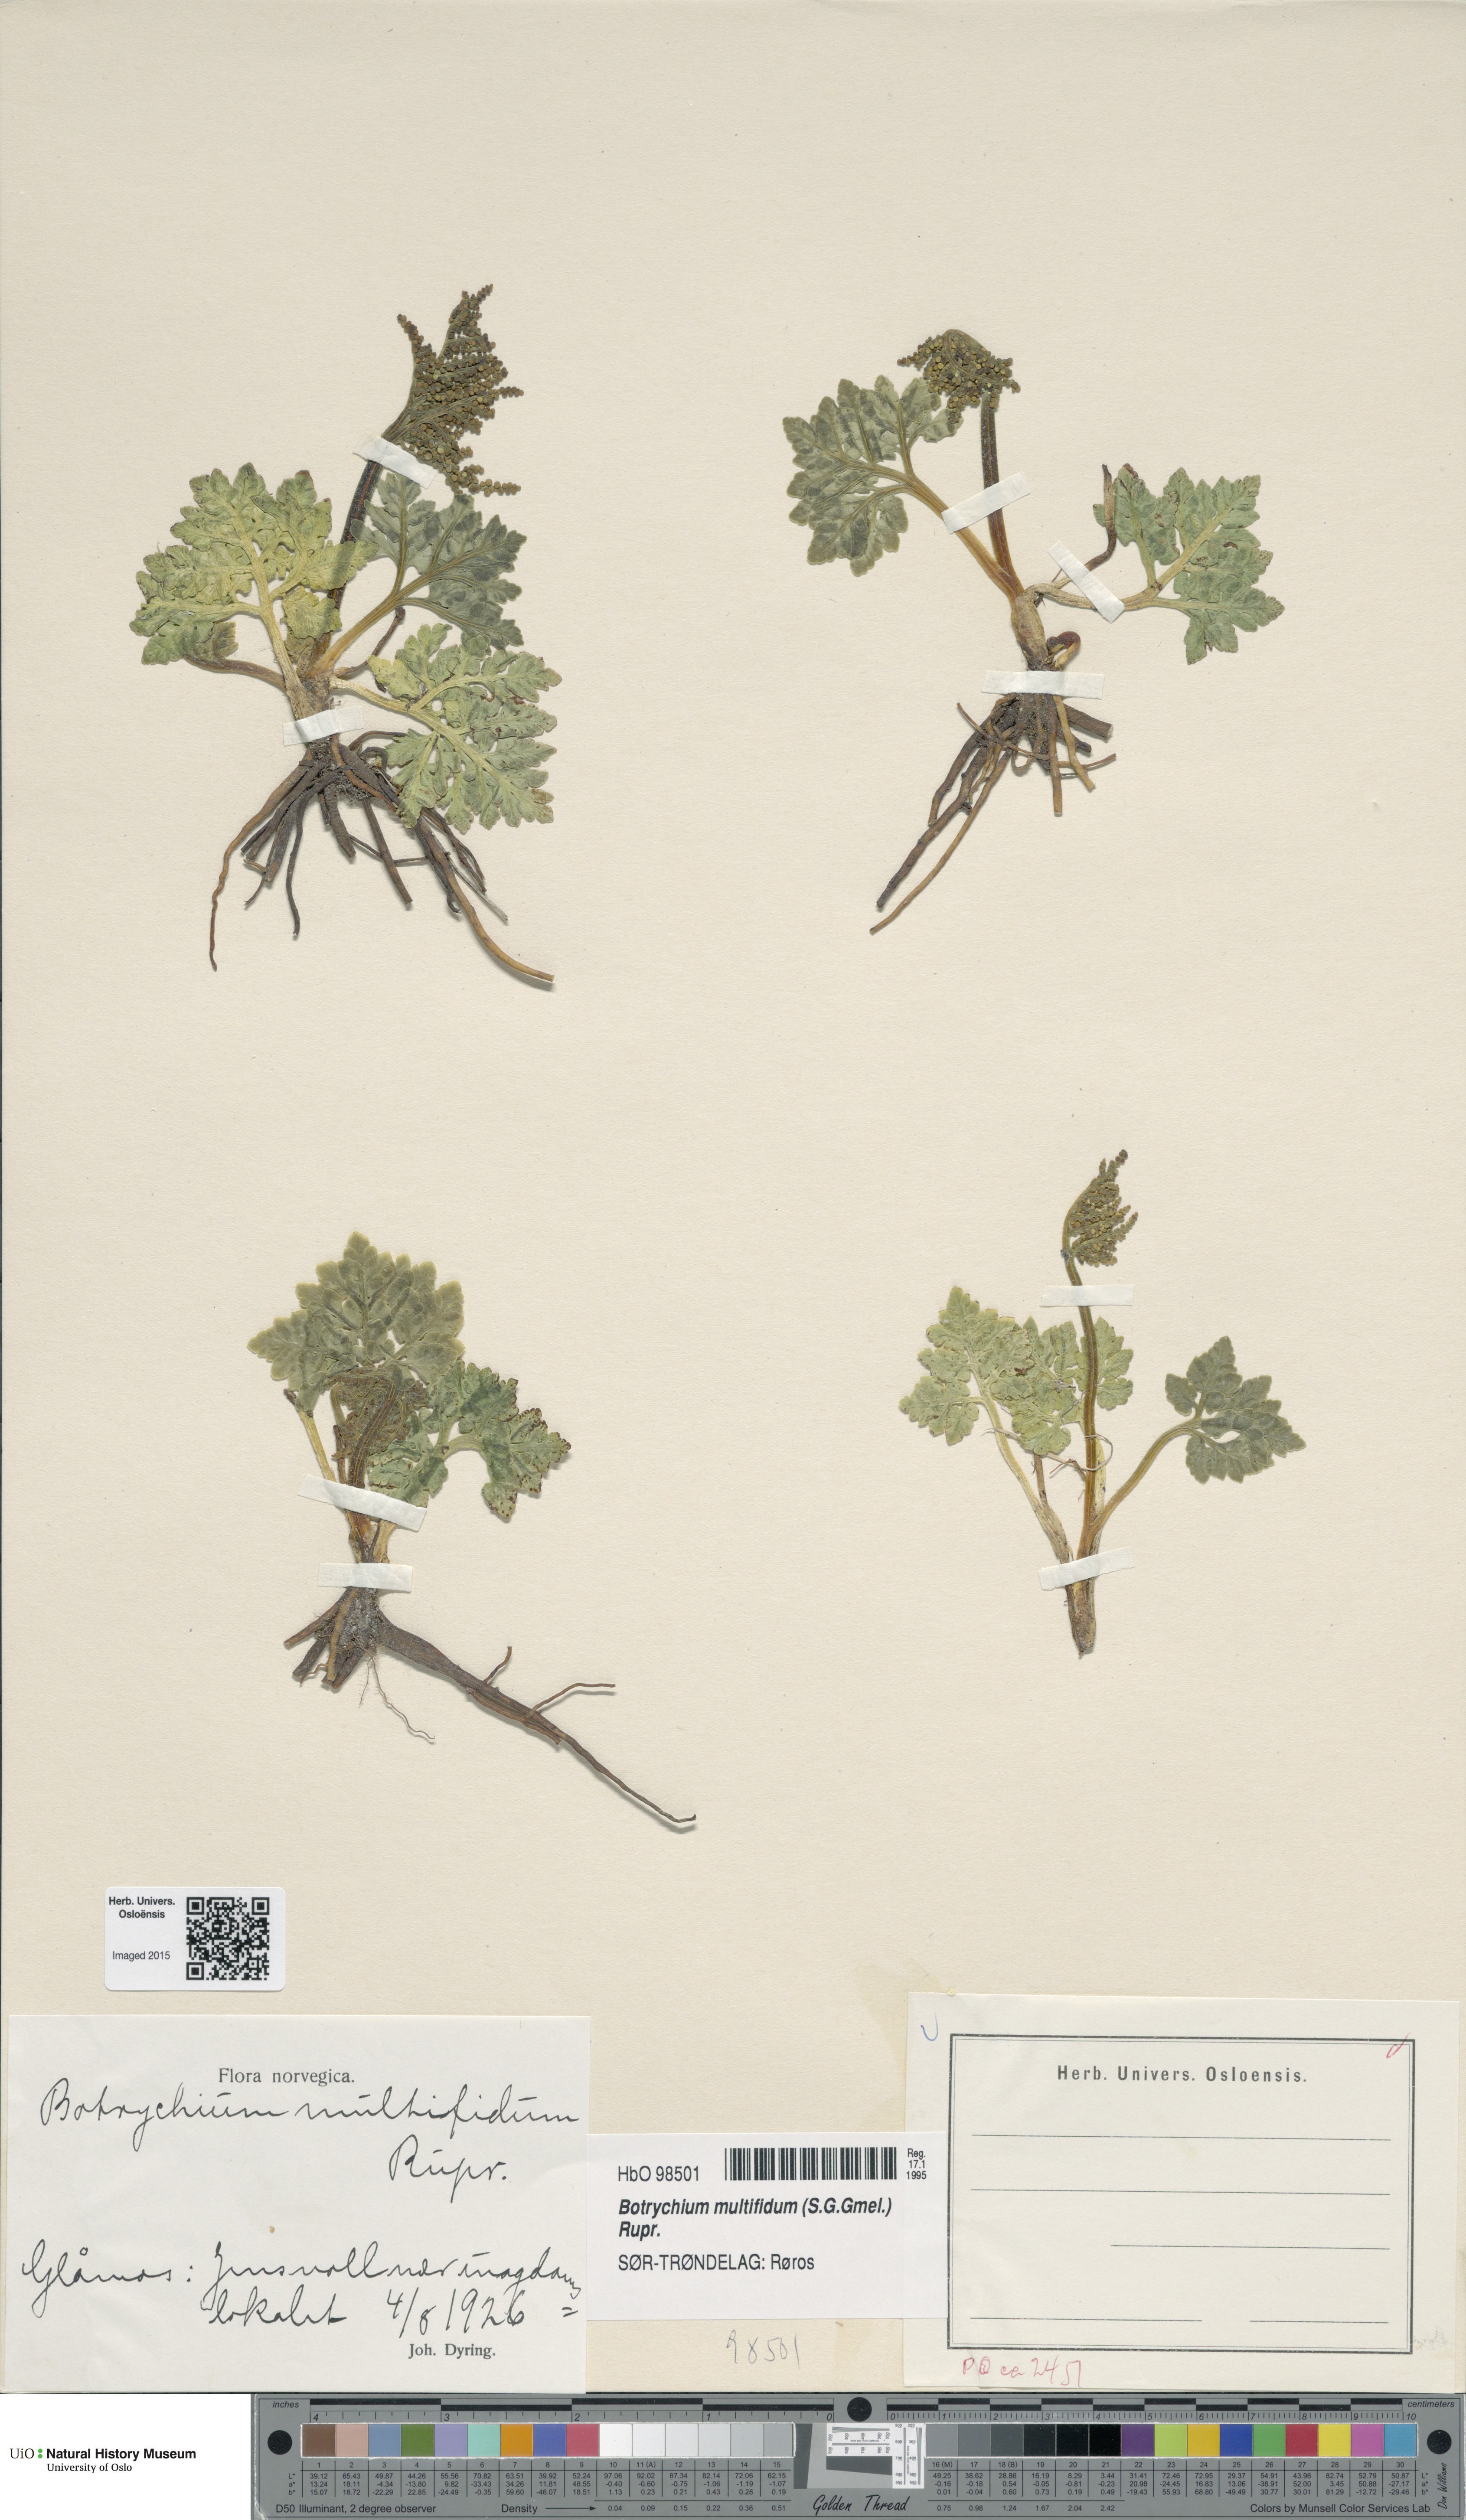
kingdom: Plantae
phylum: Tracheophyta
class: Polypodiopsida
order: Ophioglossales
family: Ophioglossaceae
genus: Sceptridium
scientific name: Sceptridium multifidum
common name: Leathery grape fern
